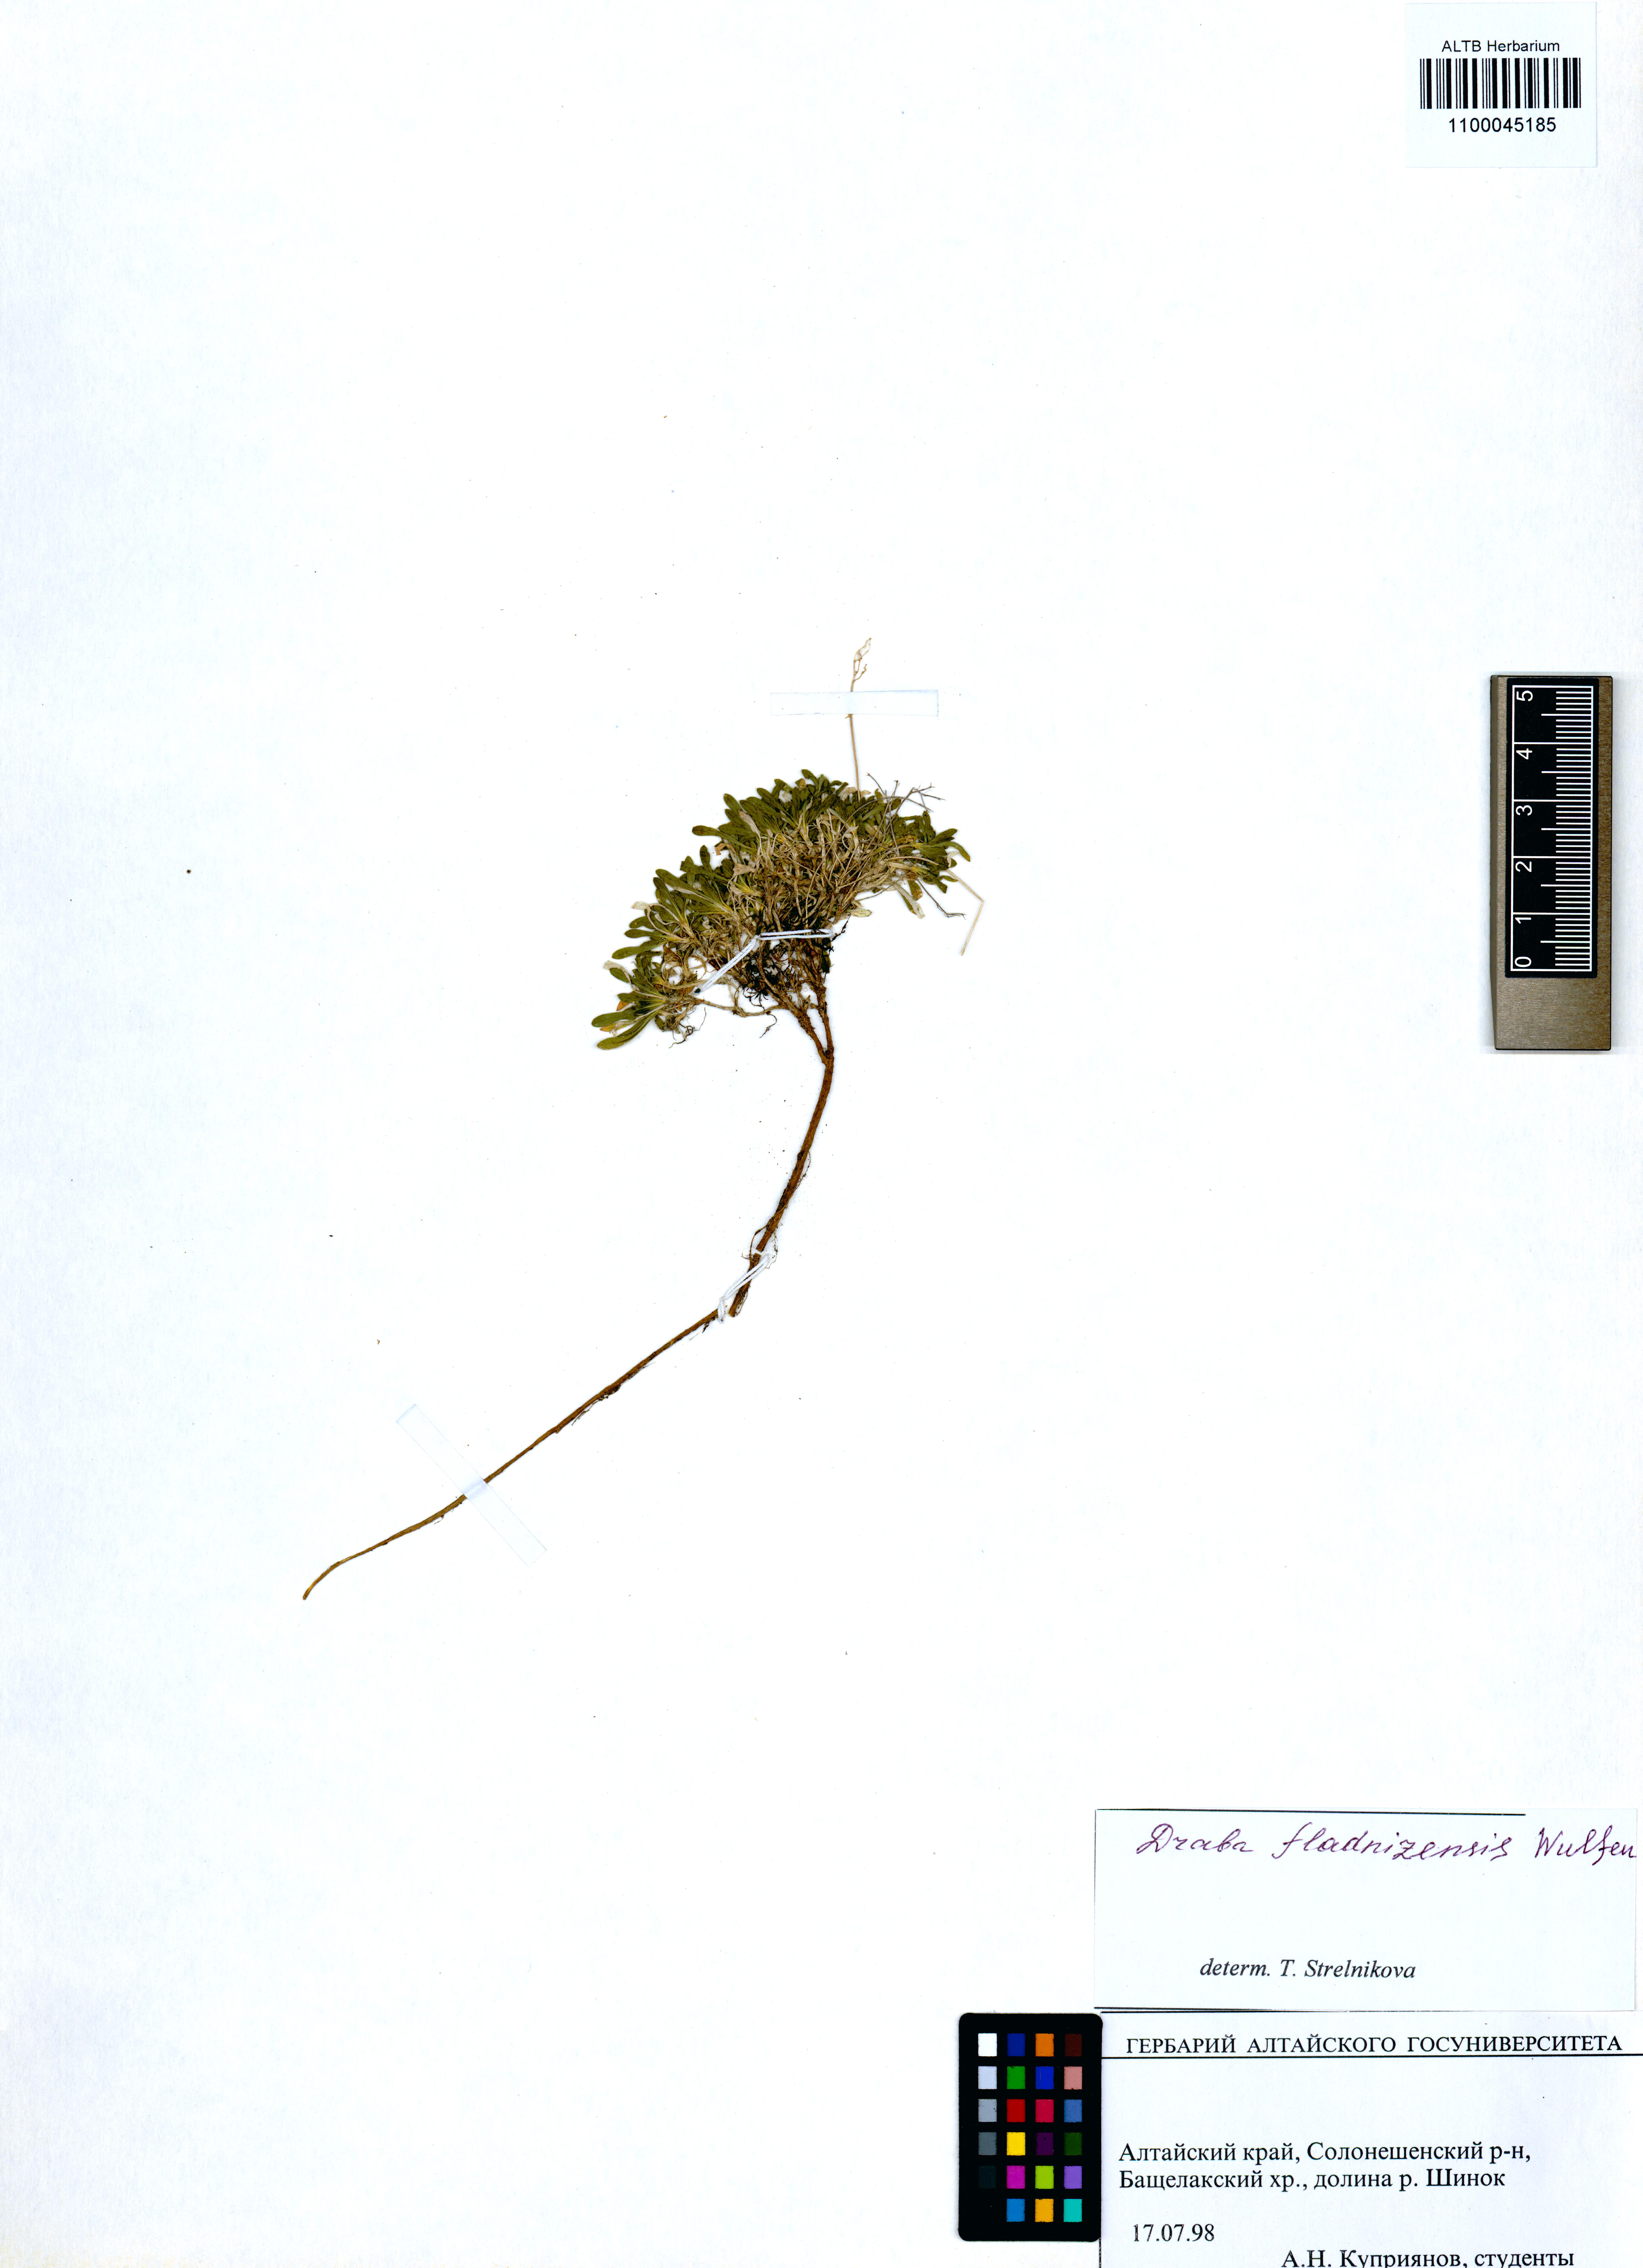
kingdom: Plantae
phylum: Tracheophyta
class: Magnoliopsida
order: Brassicales
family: Brassicaceae
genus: Draba
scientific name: Draba fladnizensis
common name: Austrian draba
